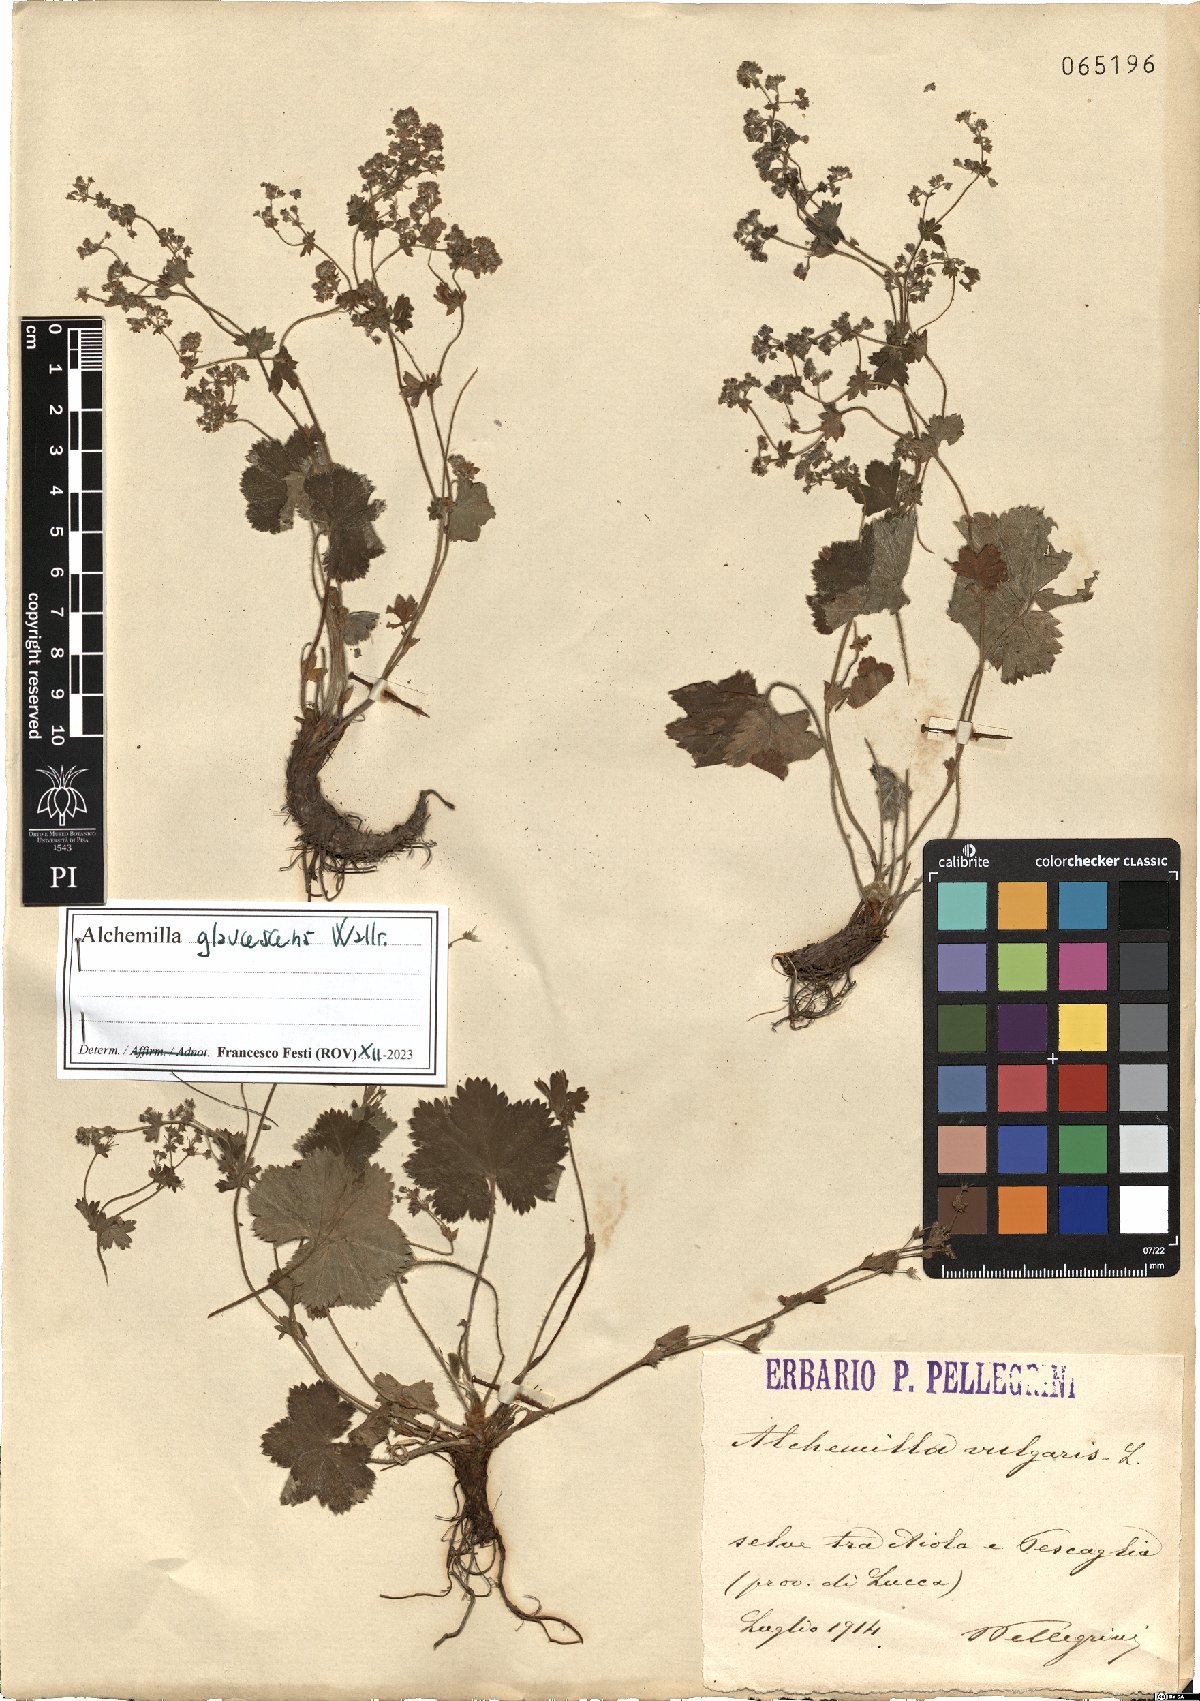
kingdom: Plantae
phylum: Tracheophyta
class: Magnoliopsida
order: Rosales
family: Rosaceae
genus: Alchemilla
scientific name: Alchemilla glaucescens
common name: Silky lady's mantle
